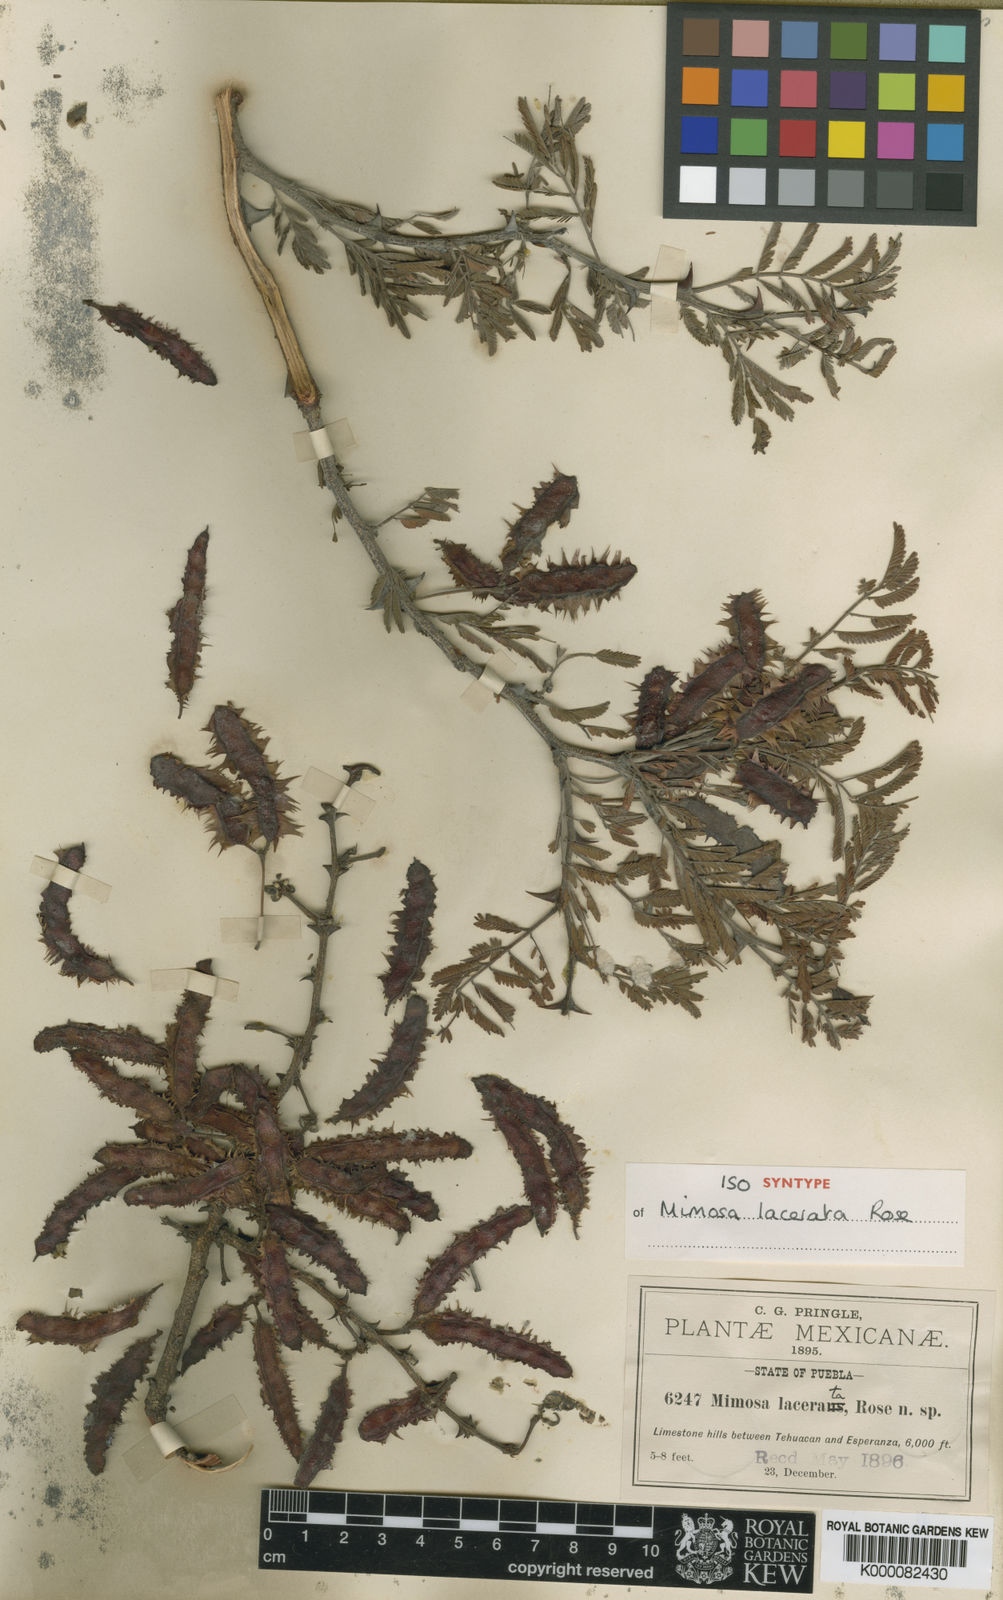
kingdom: Plantae
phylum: Tracheophyta
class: Magnoliopsida
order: Fabales
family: Fabaceae
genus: Mimosa
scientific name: Mimosa lacerata
